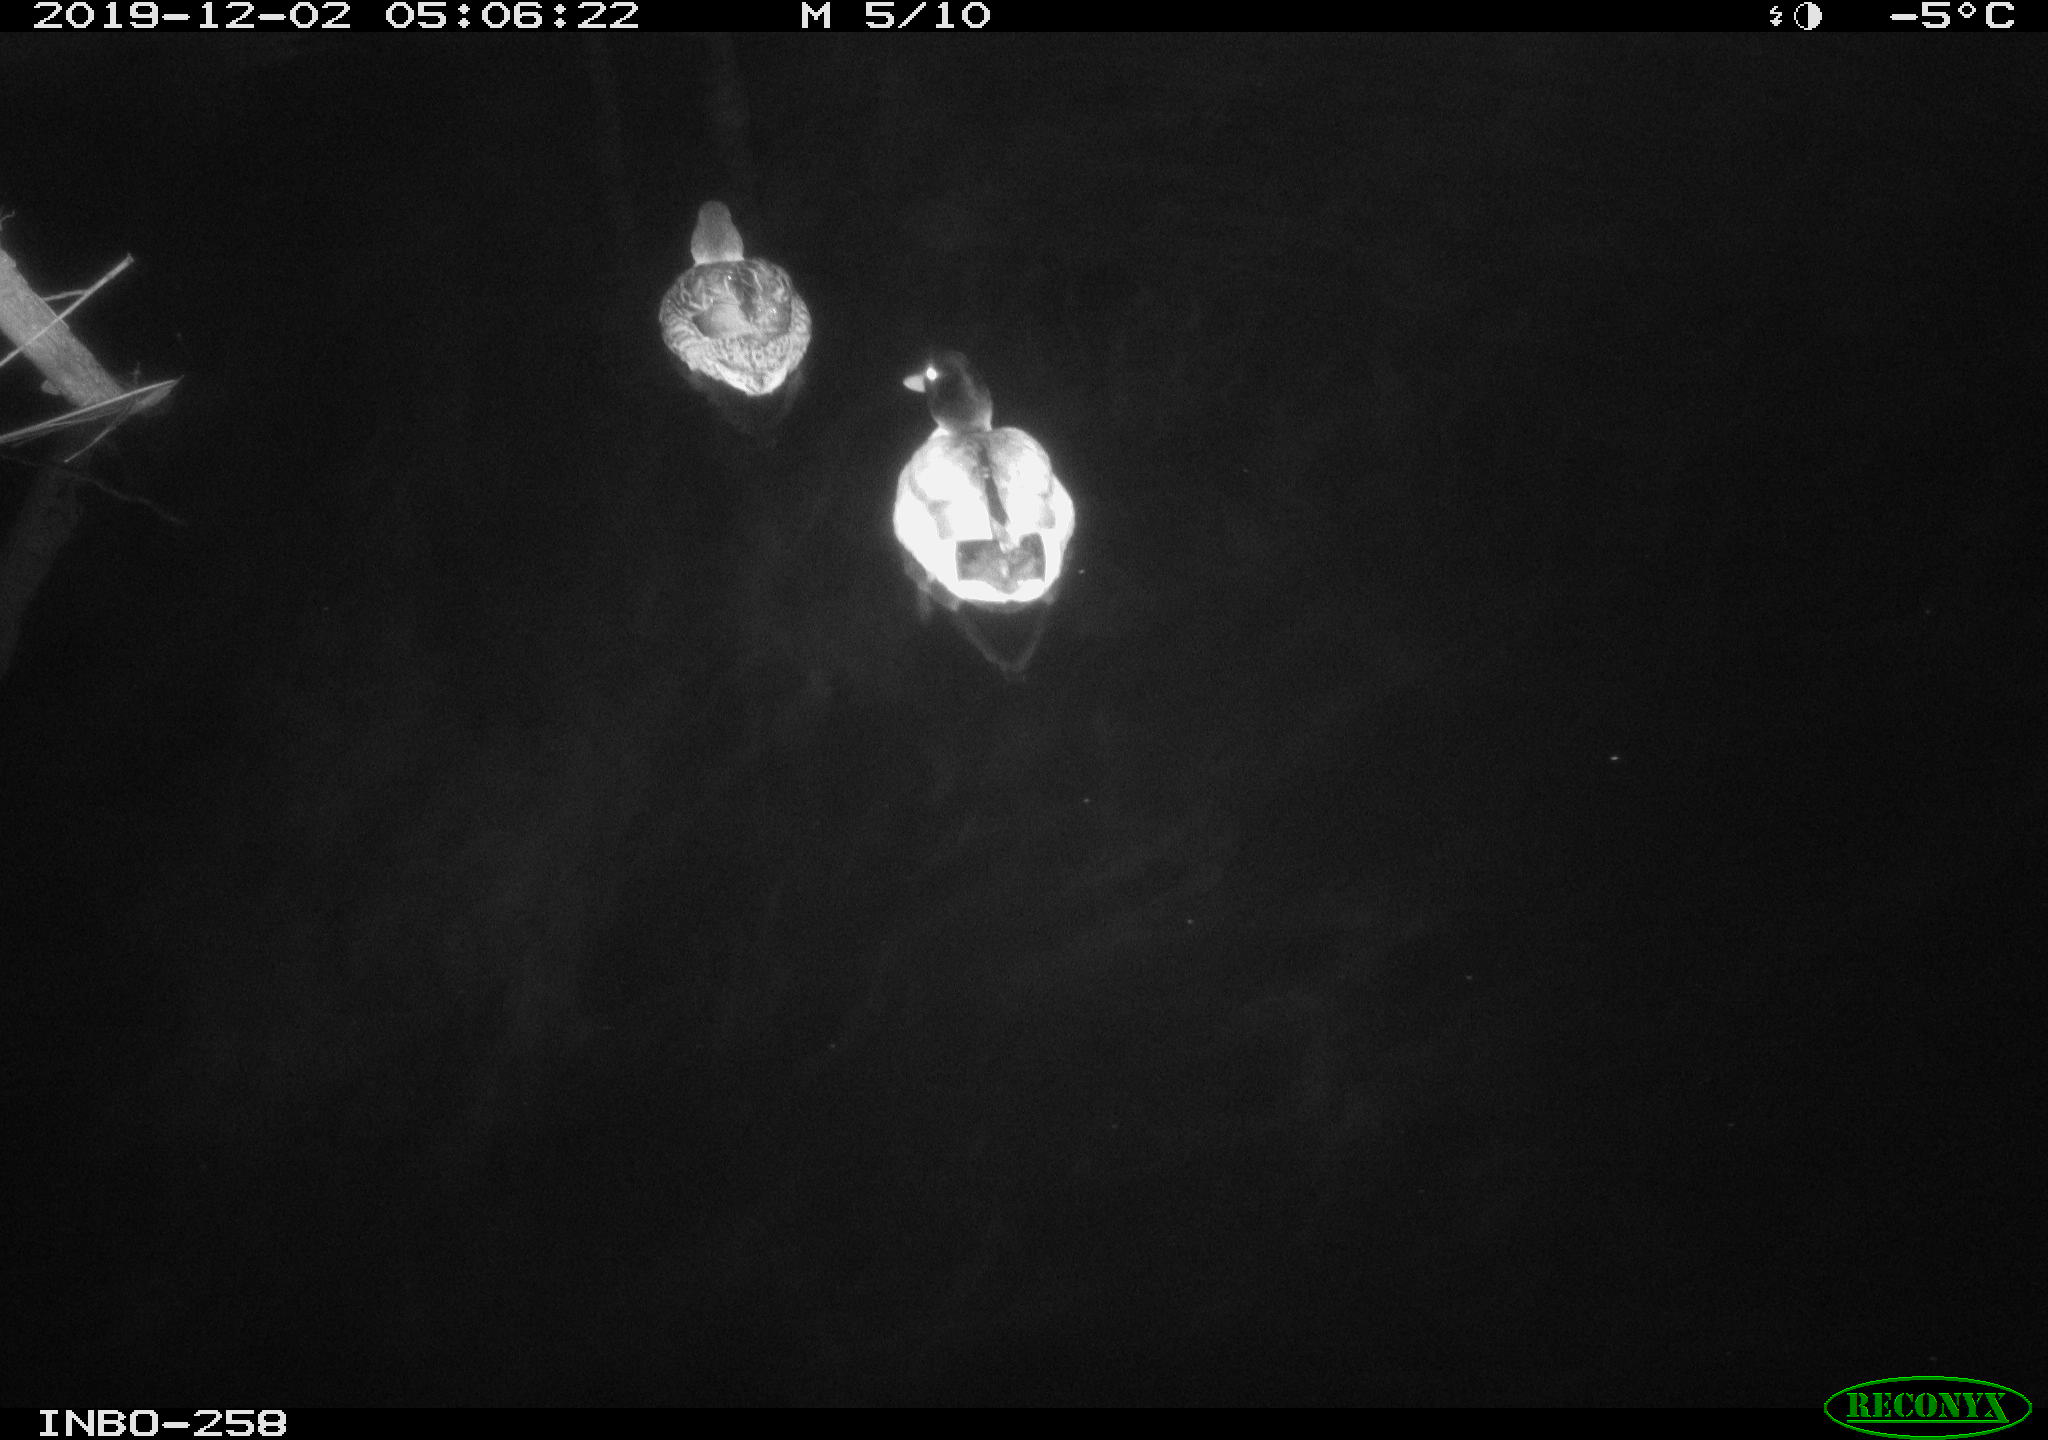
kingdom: Animalia
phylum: Chordata
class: Aves
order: Anseriformes
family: Anatidae
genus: Anas
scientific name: Anas platyrhynchos
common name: Mallard
